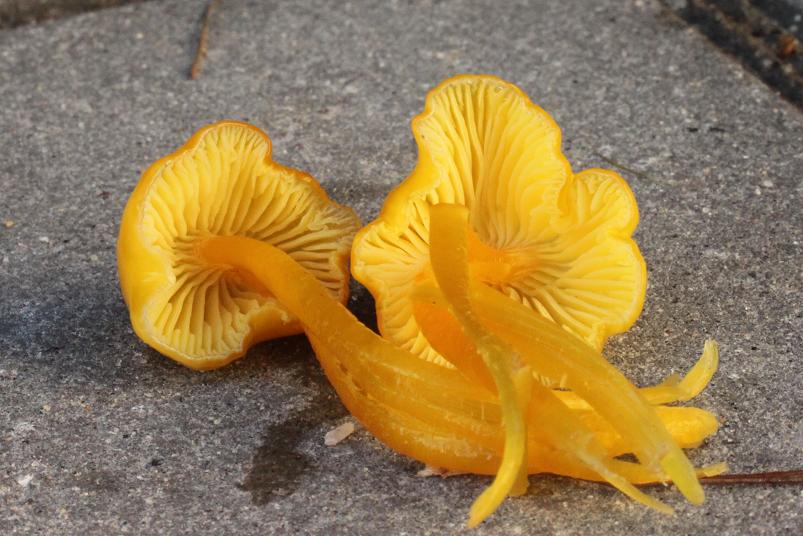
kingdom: Fungi
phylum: Basidiomycota
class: Agaricomycetes
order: Agaricales
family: Hygrophoraceae
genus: Hygrocybe
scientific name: Hygrocybe glutinipes
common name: slimstokket vokshat
